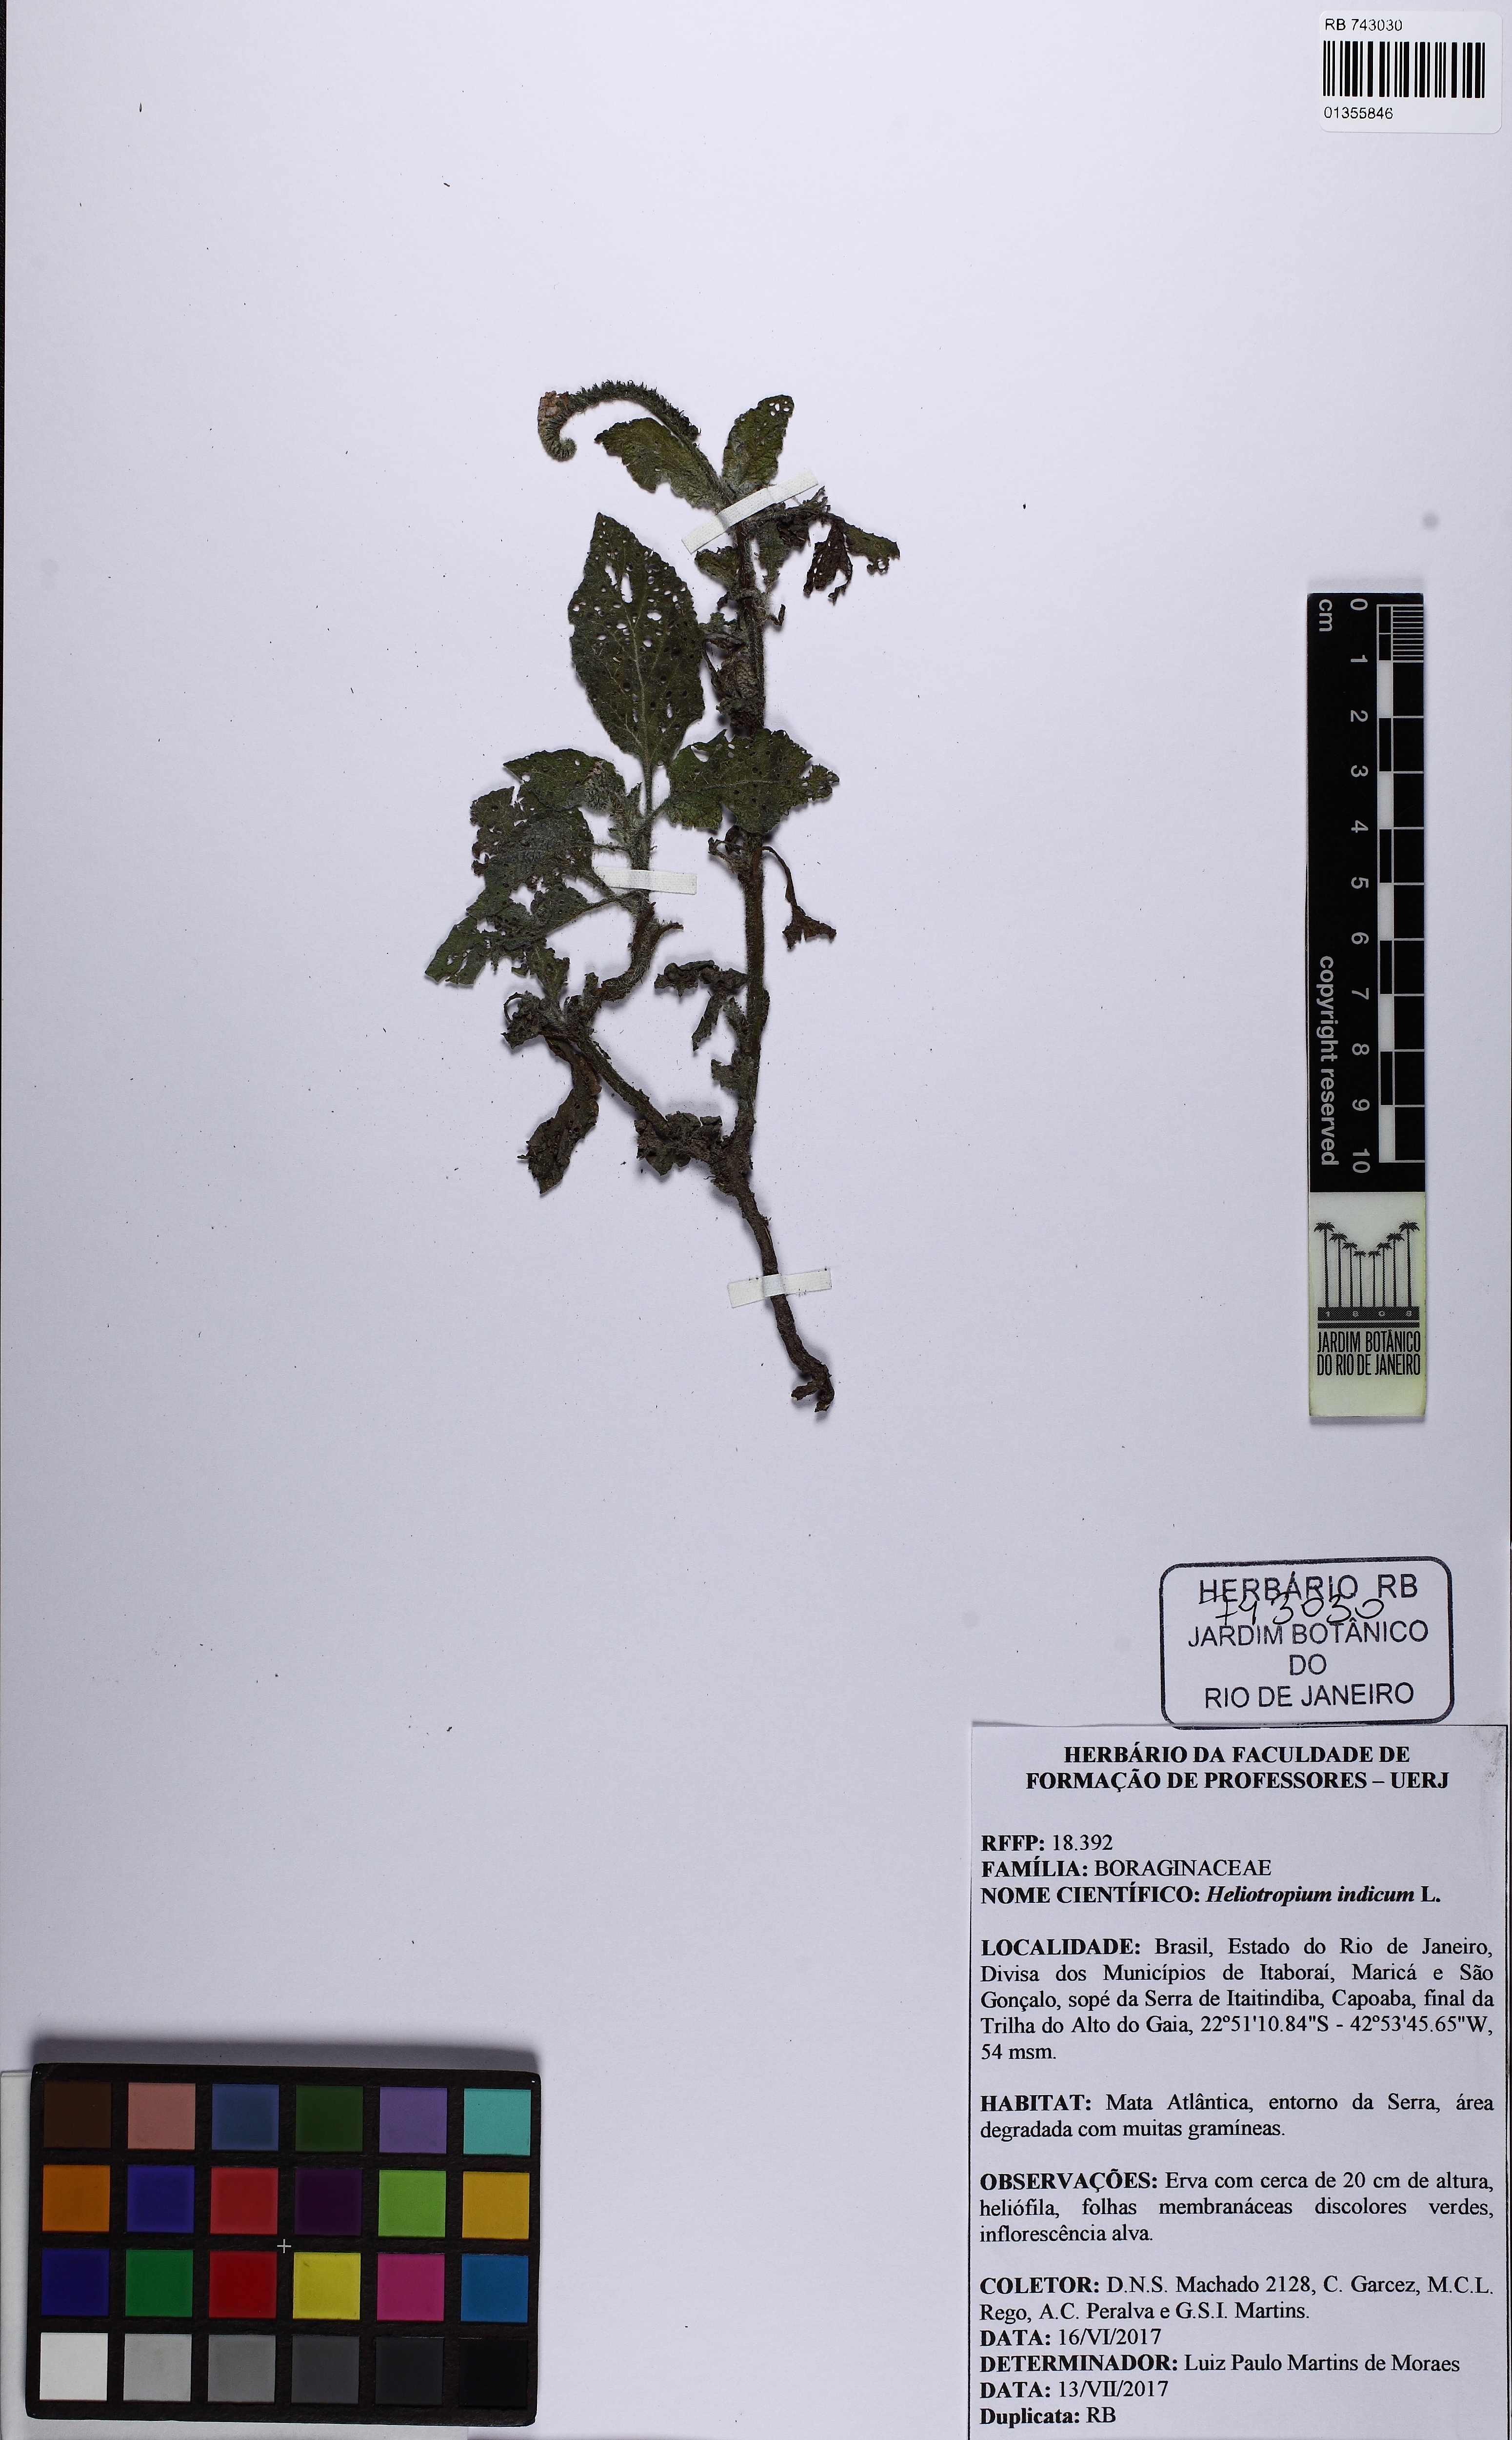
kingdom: Plantae
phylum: Tracheophyta
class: Magnoliopsida
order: Boraginales
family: Heliotropiaceae
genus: Heliotropium
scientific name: Heliotropium indicum
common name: Indian heliotrope
